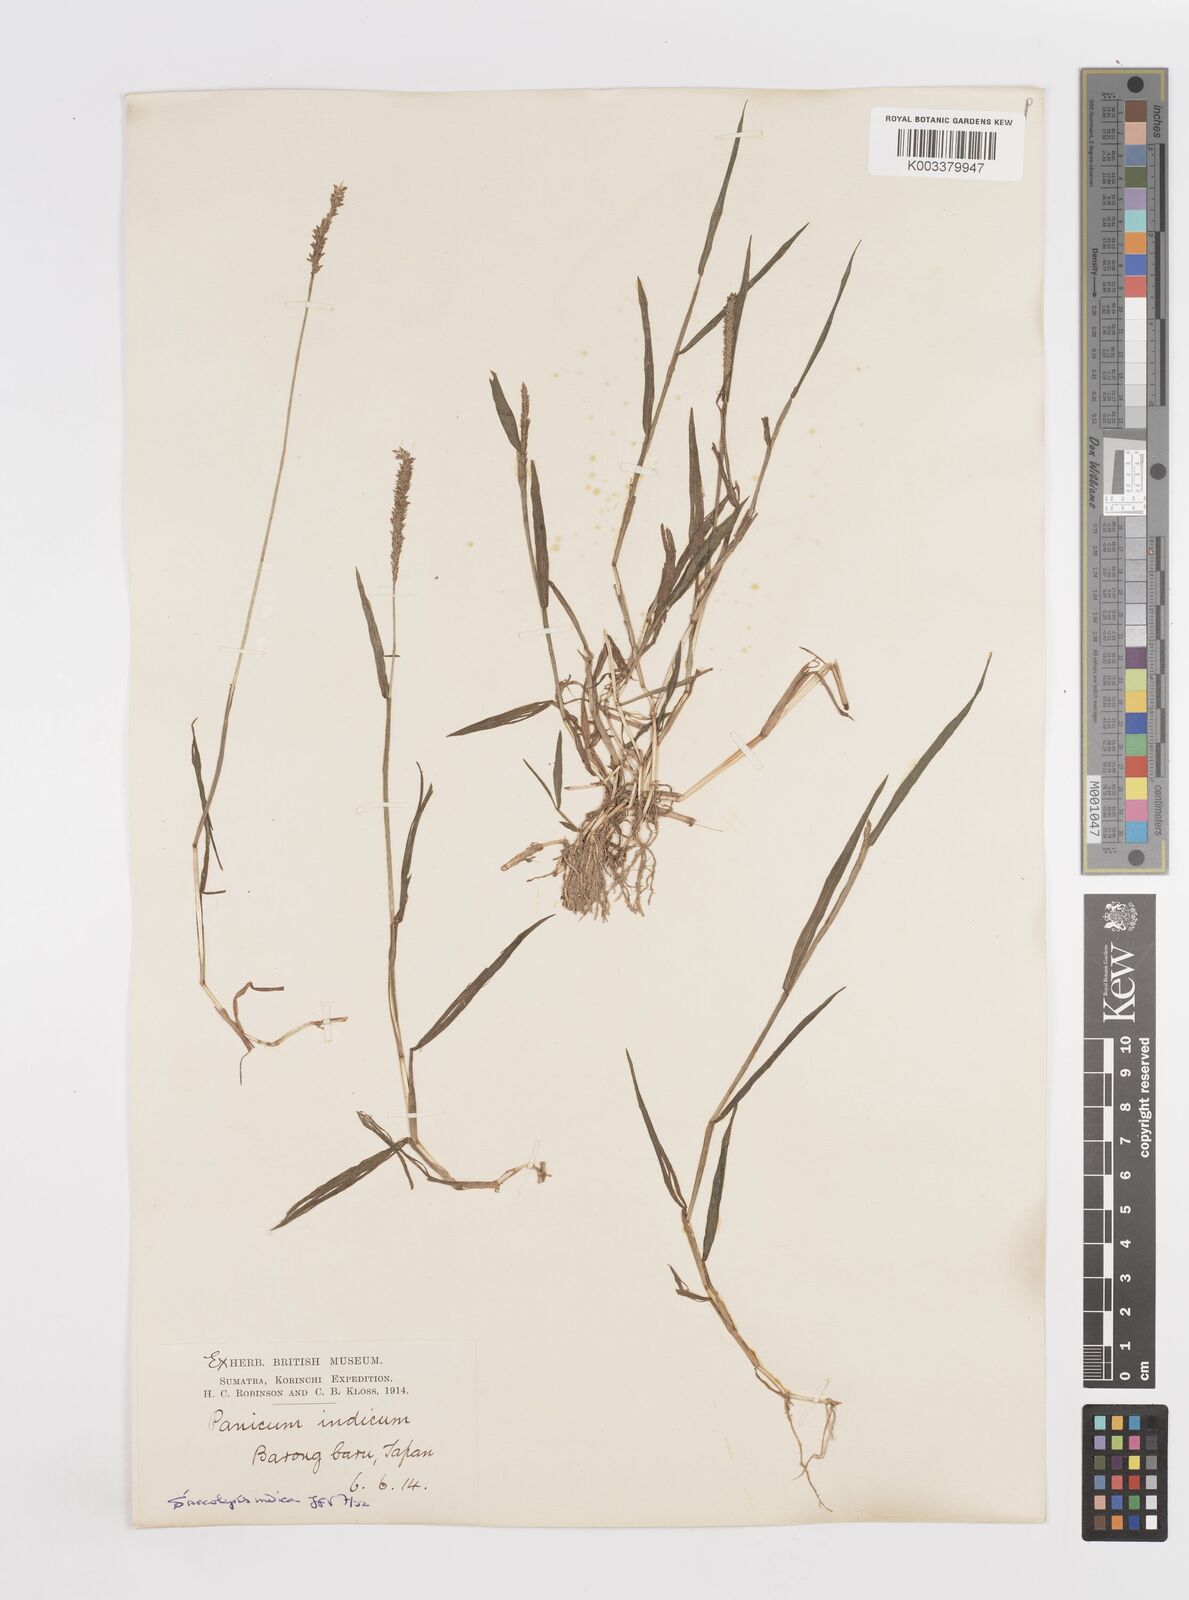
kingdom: Plantae
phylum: Tracheophyta
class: Liliopsida
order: Poales
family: Poaceae
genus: Sacciolepis
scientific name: Sacciolepis indica
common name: Glenwoodgrass
